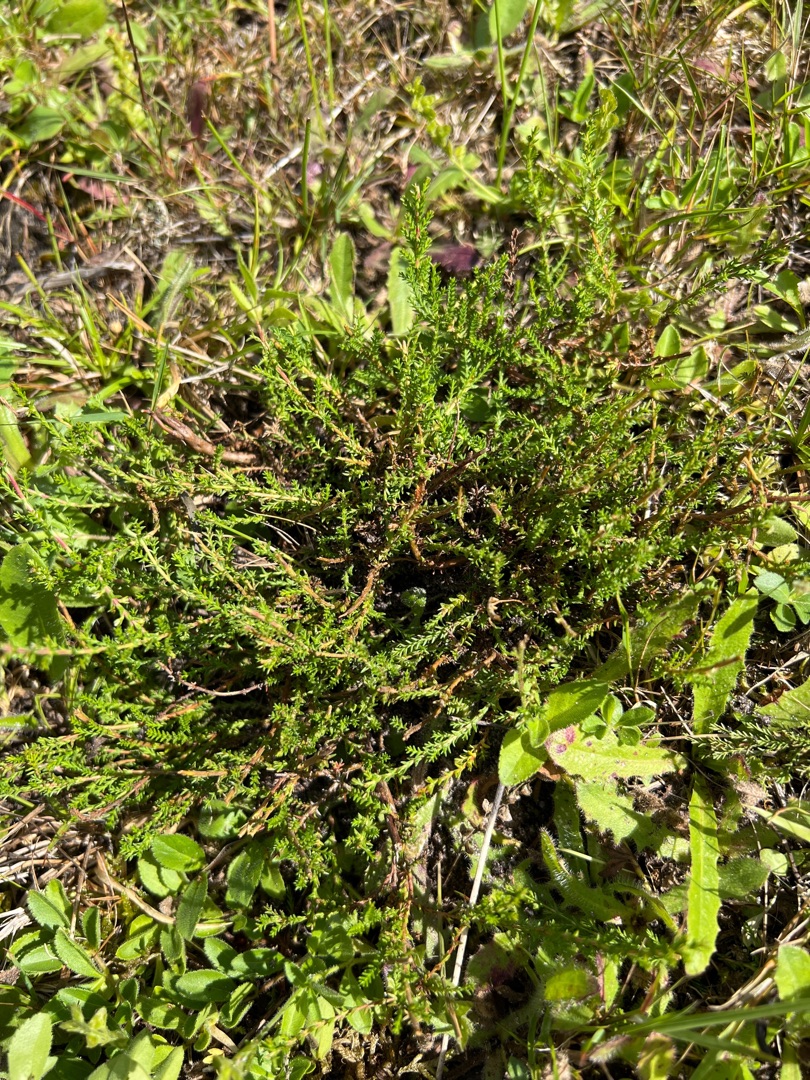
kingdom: Plantae
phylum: Tracheophyta
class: Magnoliopsida
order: Ericales
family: Ericaceae
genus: Calluna
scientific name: Calluna vulgaris
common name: Hedelyng
